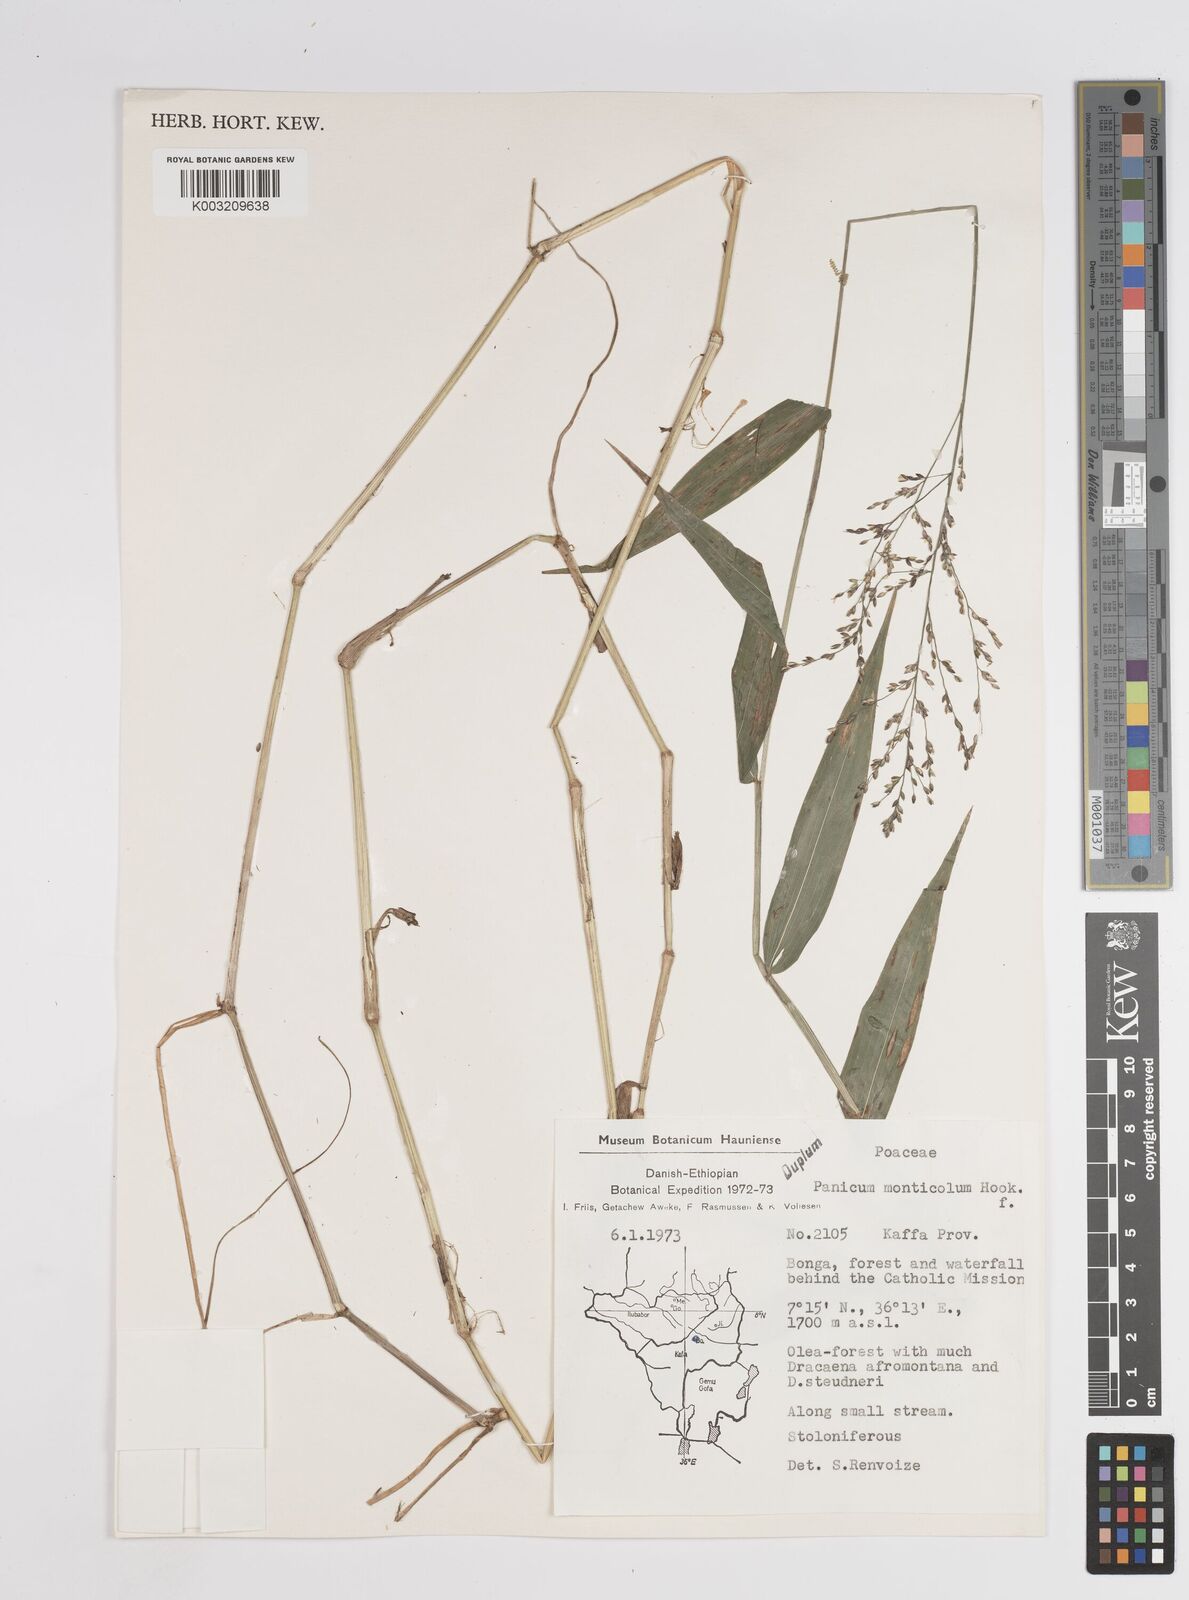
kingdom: Plantae
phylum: Tracheophyta
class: Liliopsida
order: Poales
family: Poaceae
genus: Panicum
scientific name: Panicum monticola
